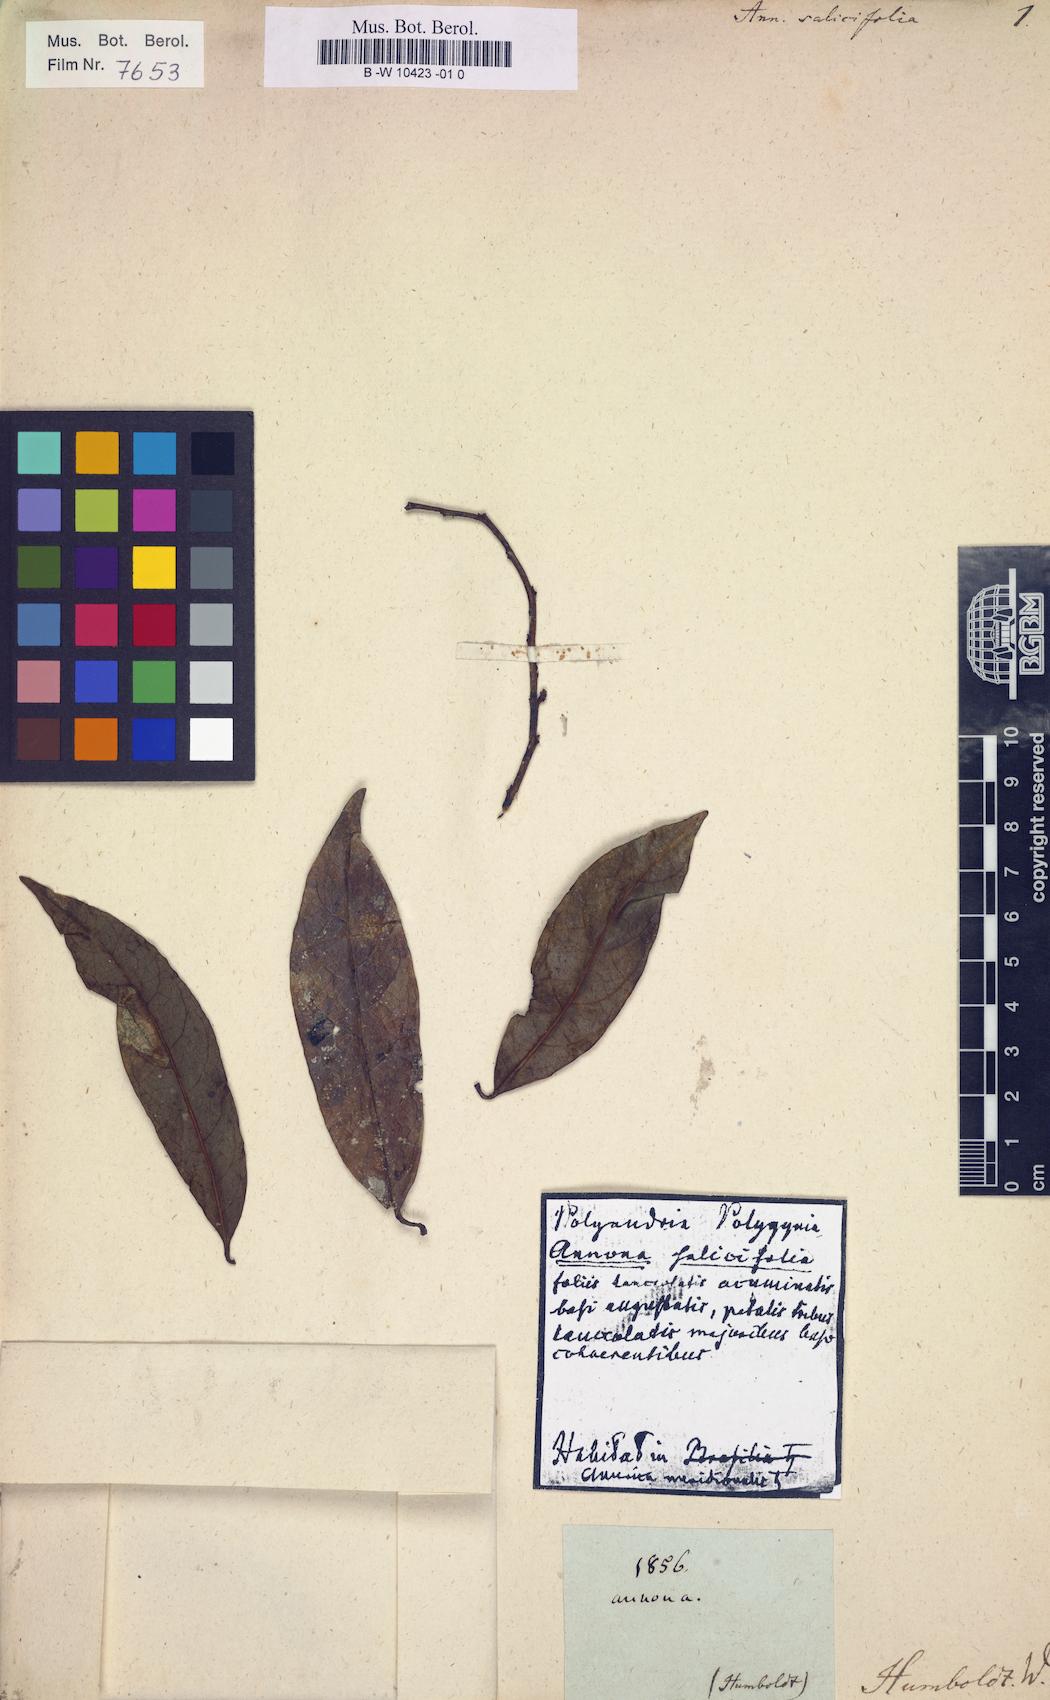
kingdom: Plantae
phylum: Tracheophyta
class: Magnoliopsida
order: Magnoliales
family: Annonaceae
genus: Annona
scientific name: Annona salicifolia
